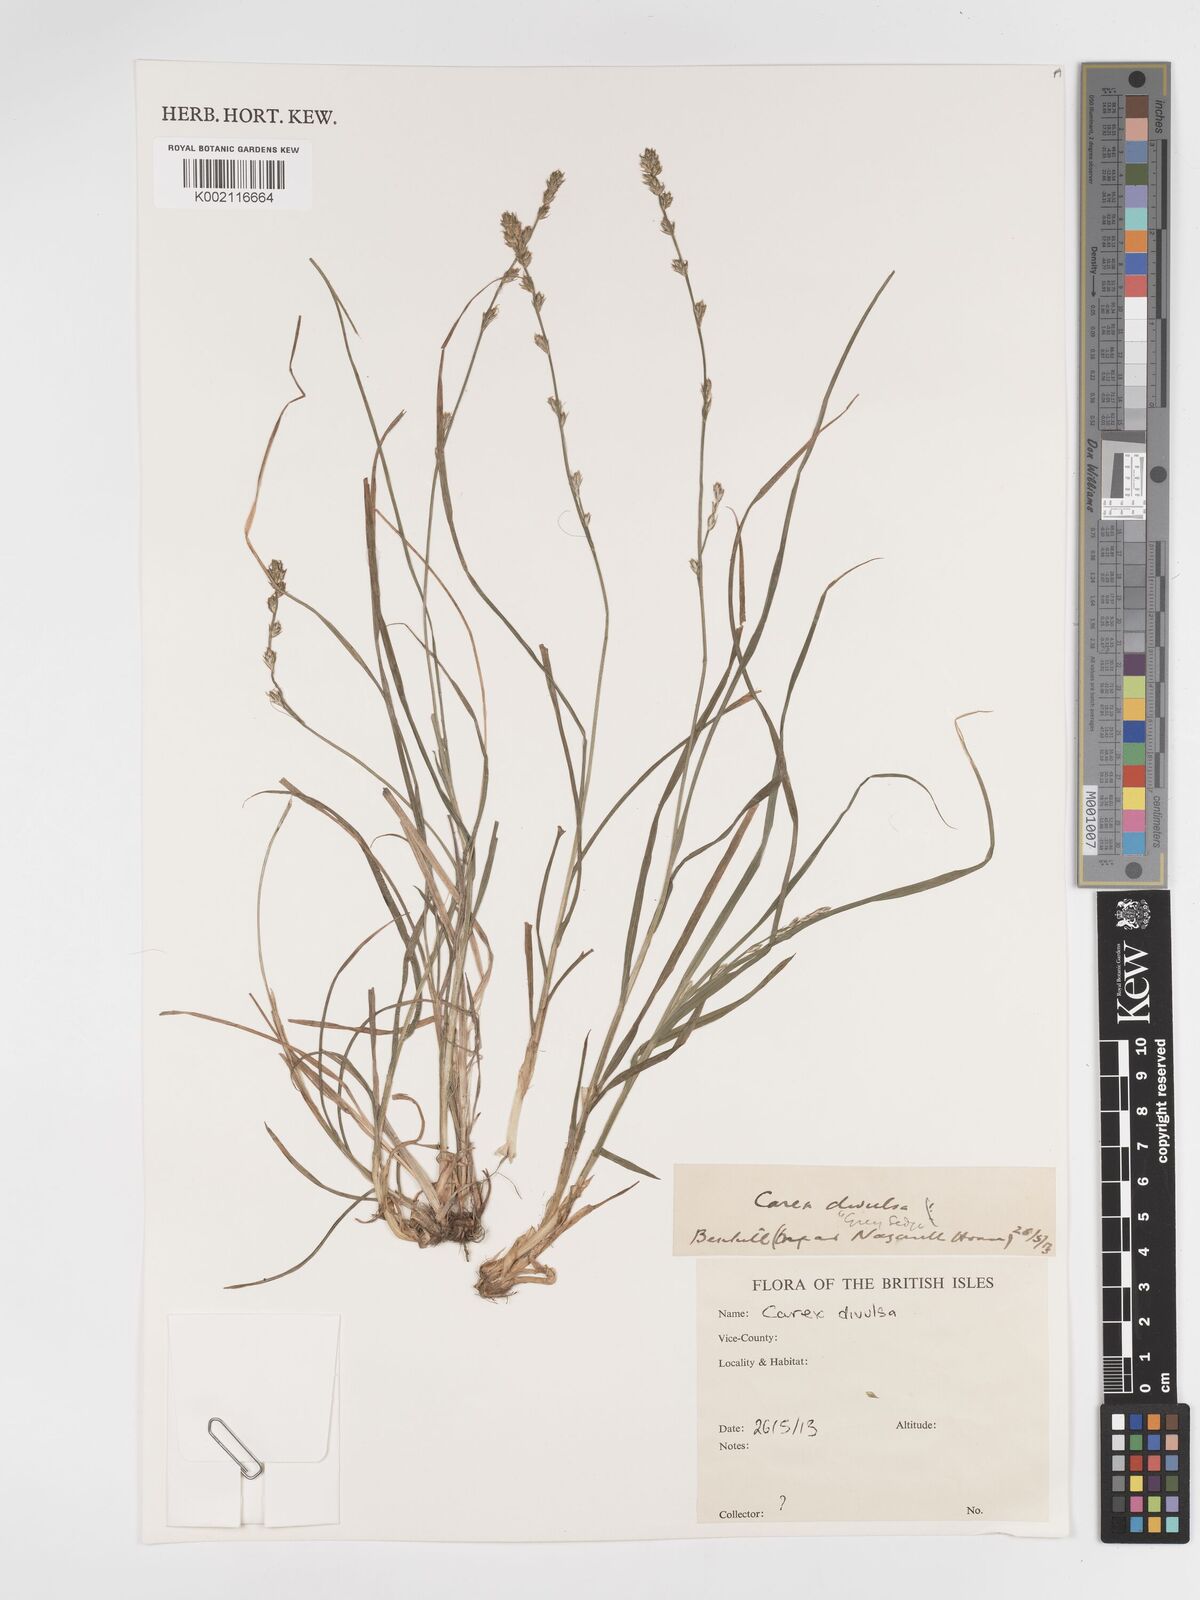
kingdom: Plantae
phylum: Tracheophyta
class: Liliopsida
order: Poales
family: Cyperaceae
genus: Carex
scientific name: Carex divulsa
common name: Grassland sedge
